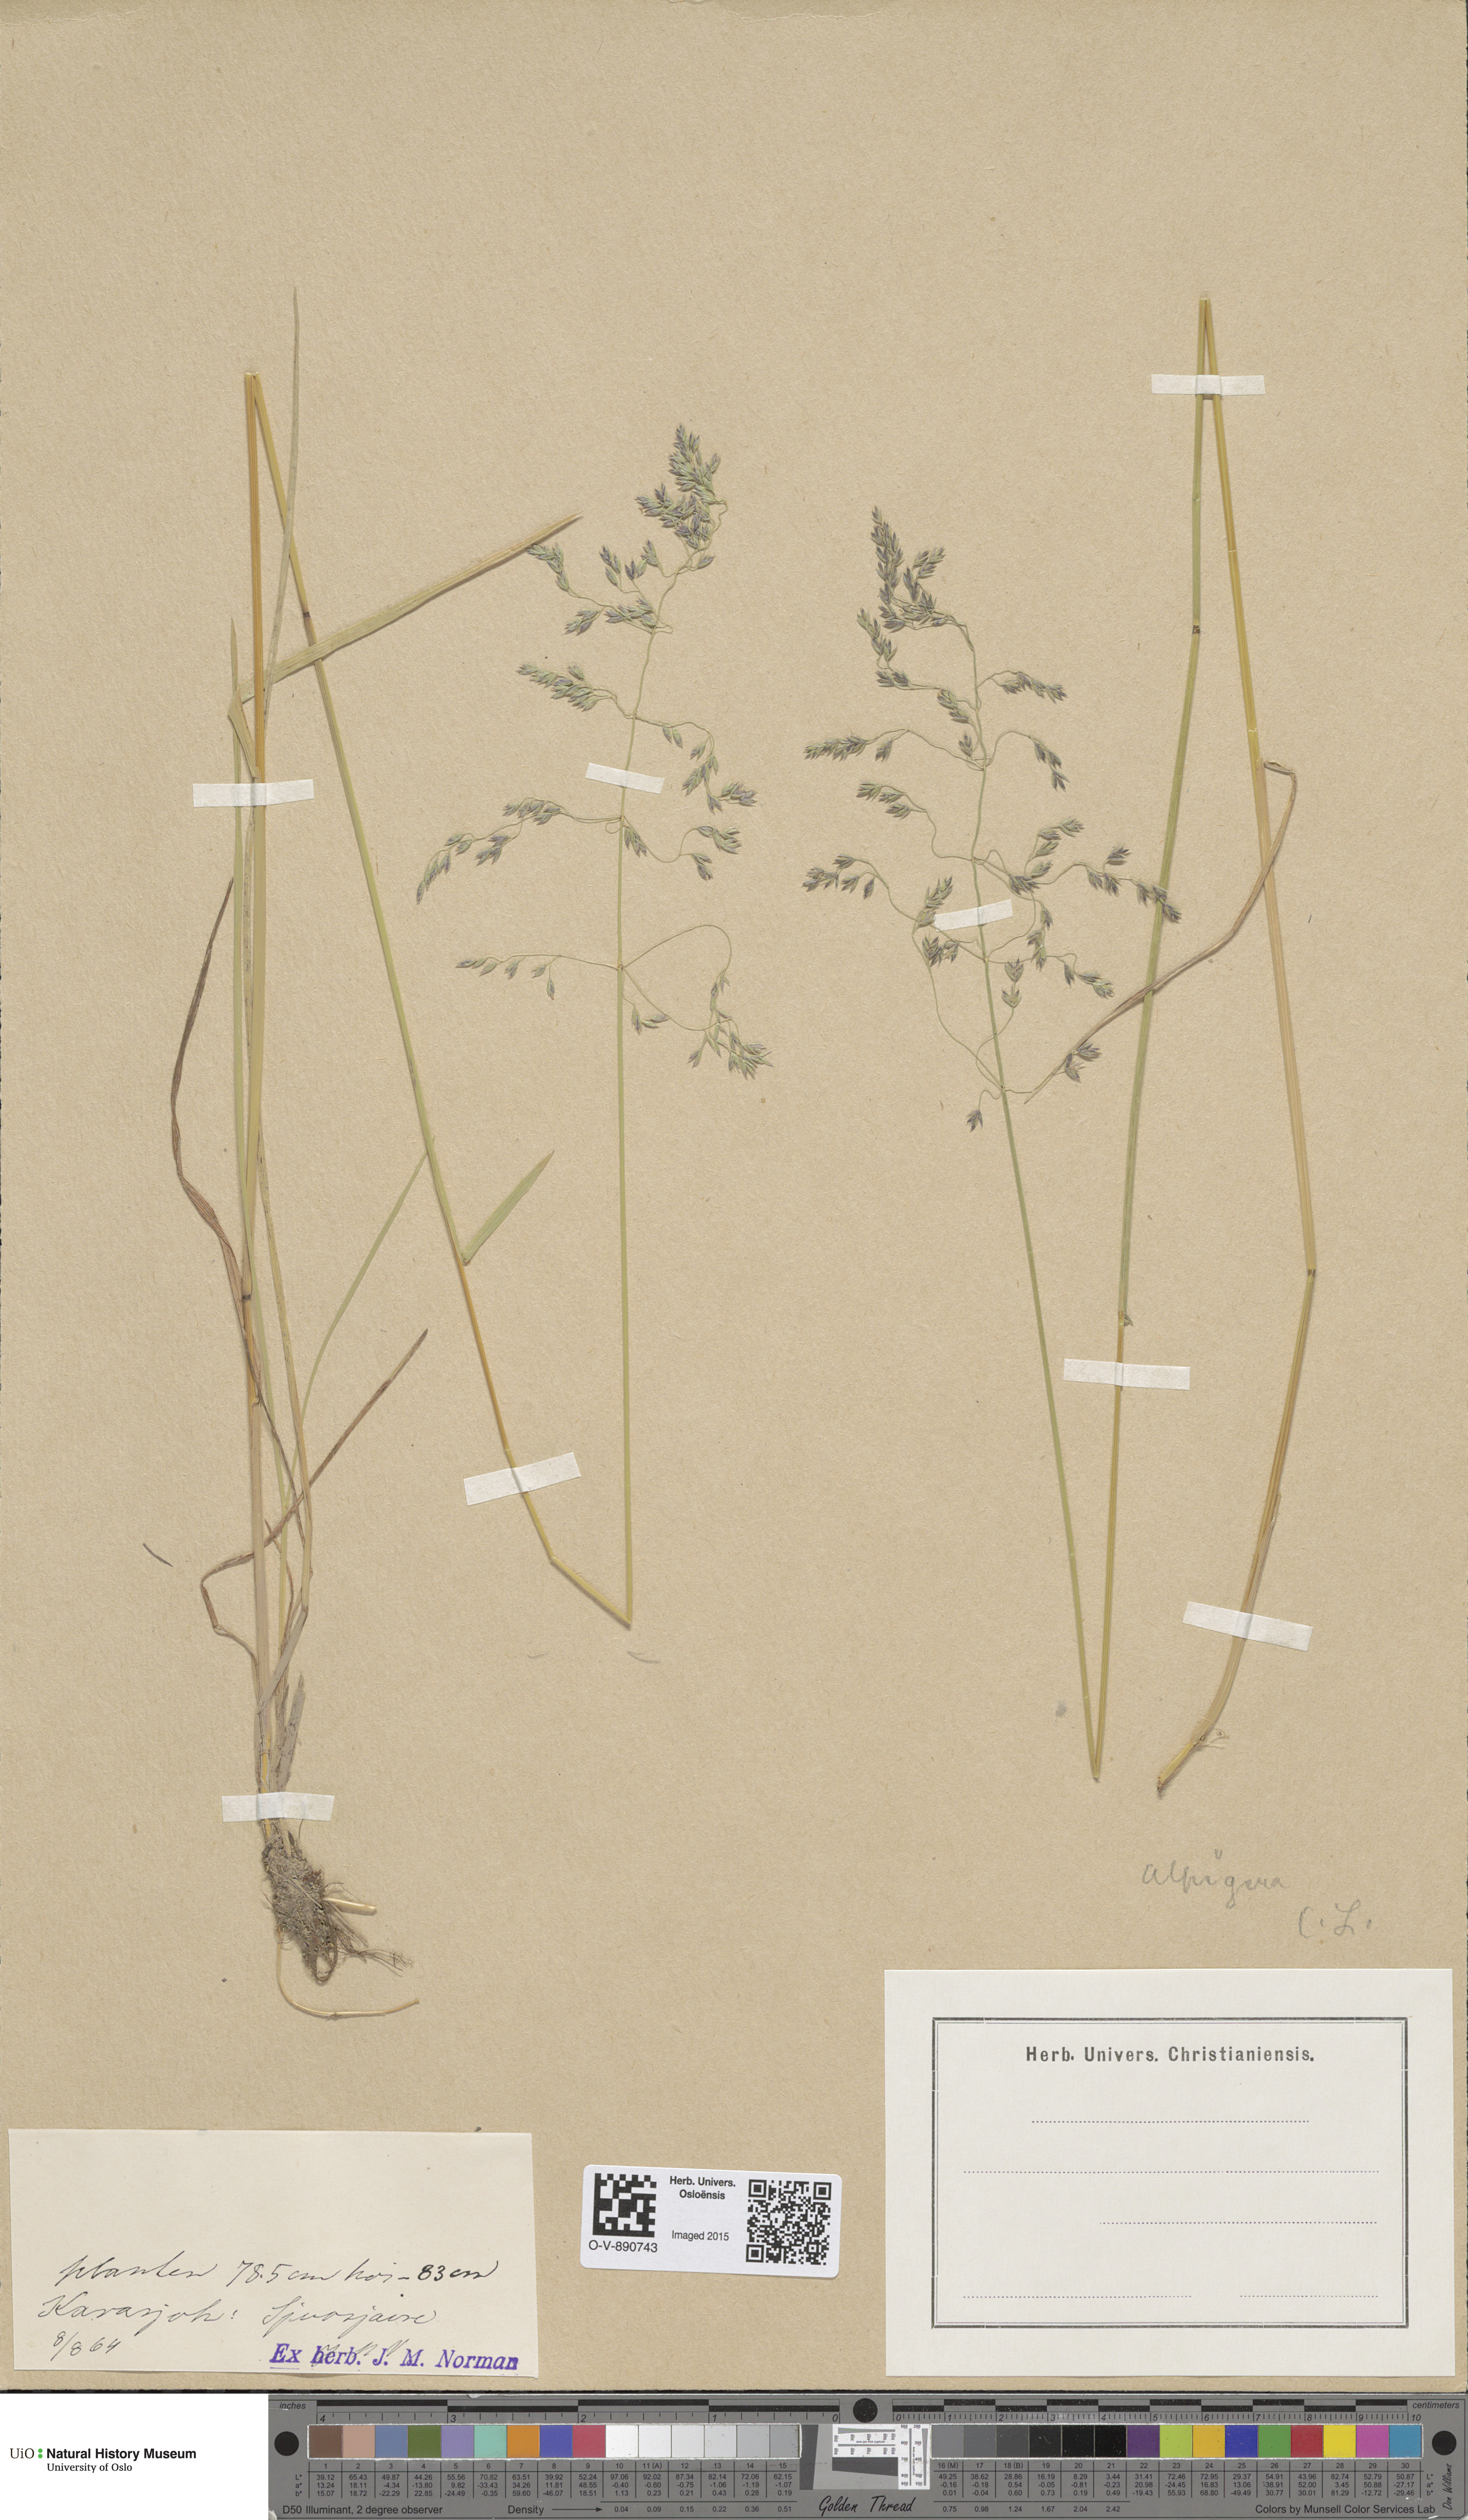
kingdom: Plantae
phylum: Tracheophyta
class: Liliopsida
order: Poales
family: Poaceae
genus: Poa
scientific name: Poa alpigena
